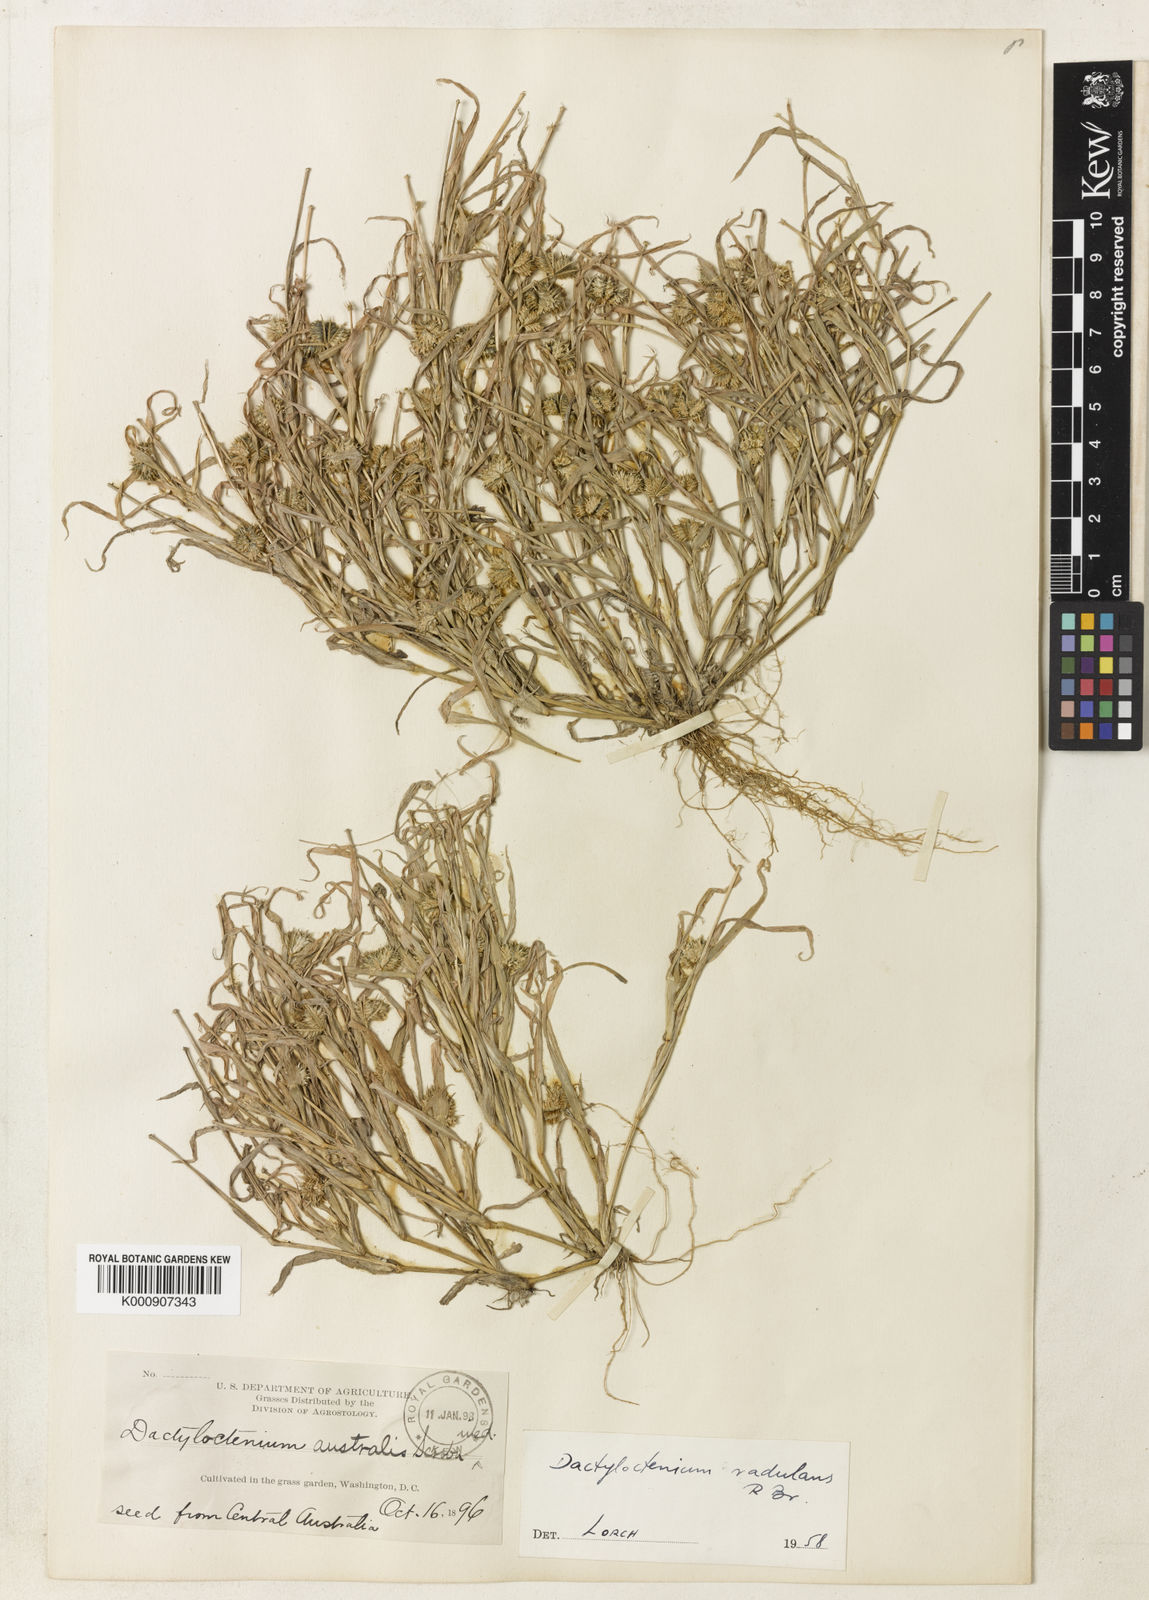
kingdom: Plantae
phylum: Tracheophyta
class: Liliopsida
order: Poales
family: Poaceae
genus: Dactyloctenium
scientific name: Dactyloctenium radulans
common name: Button-grass
